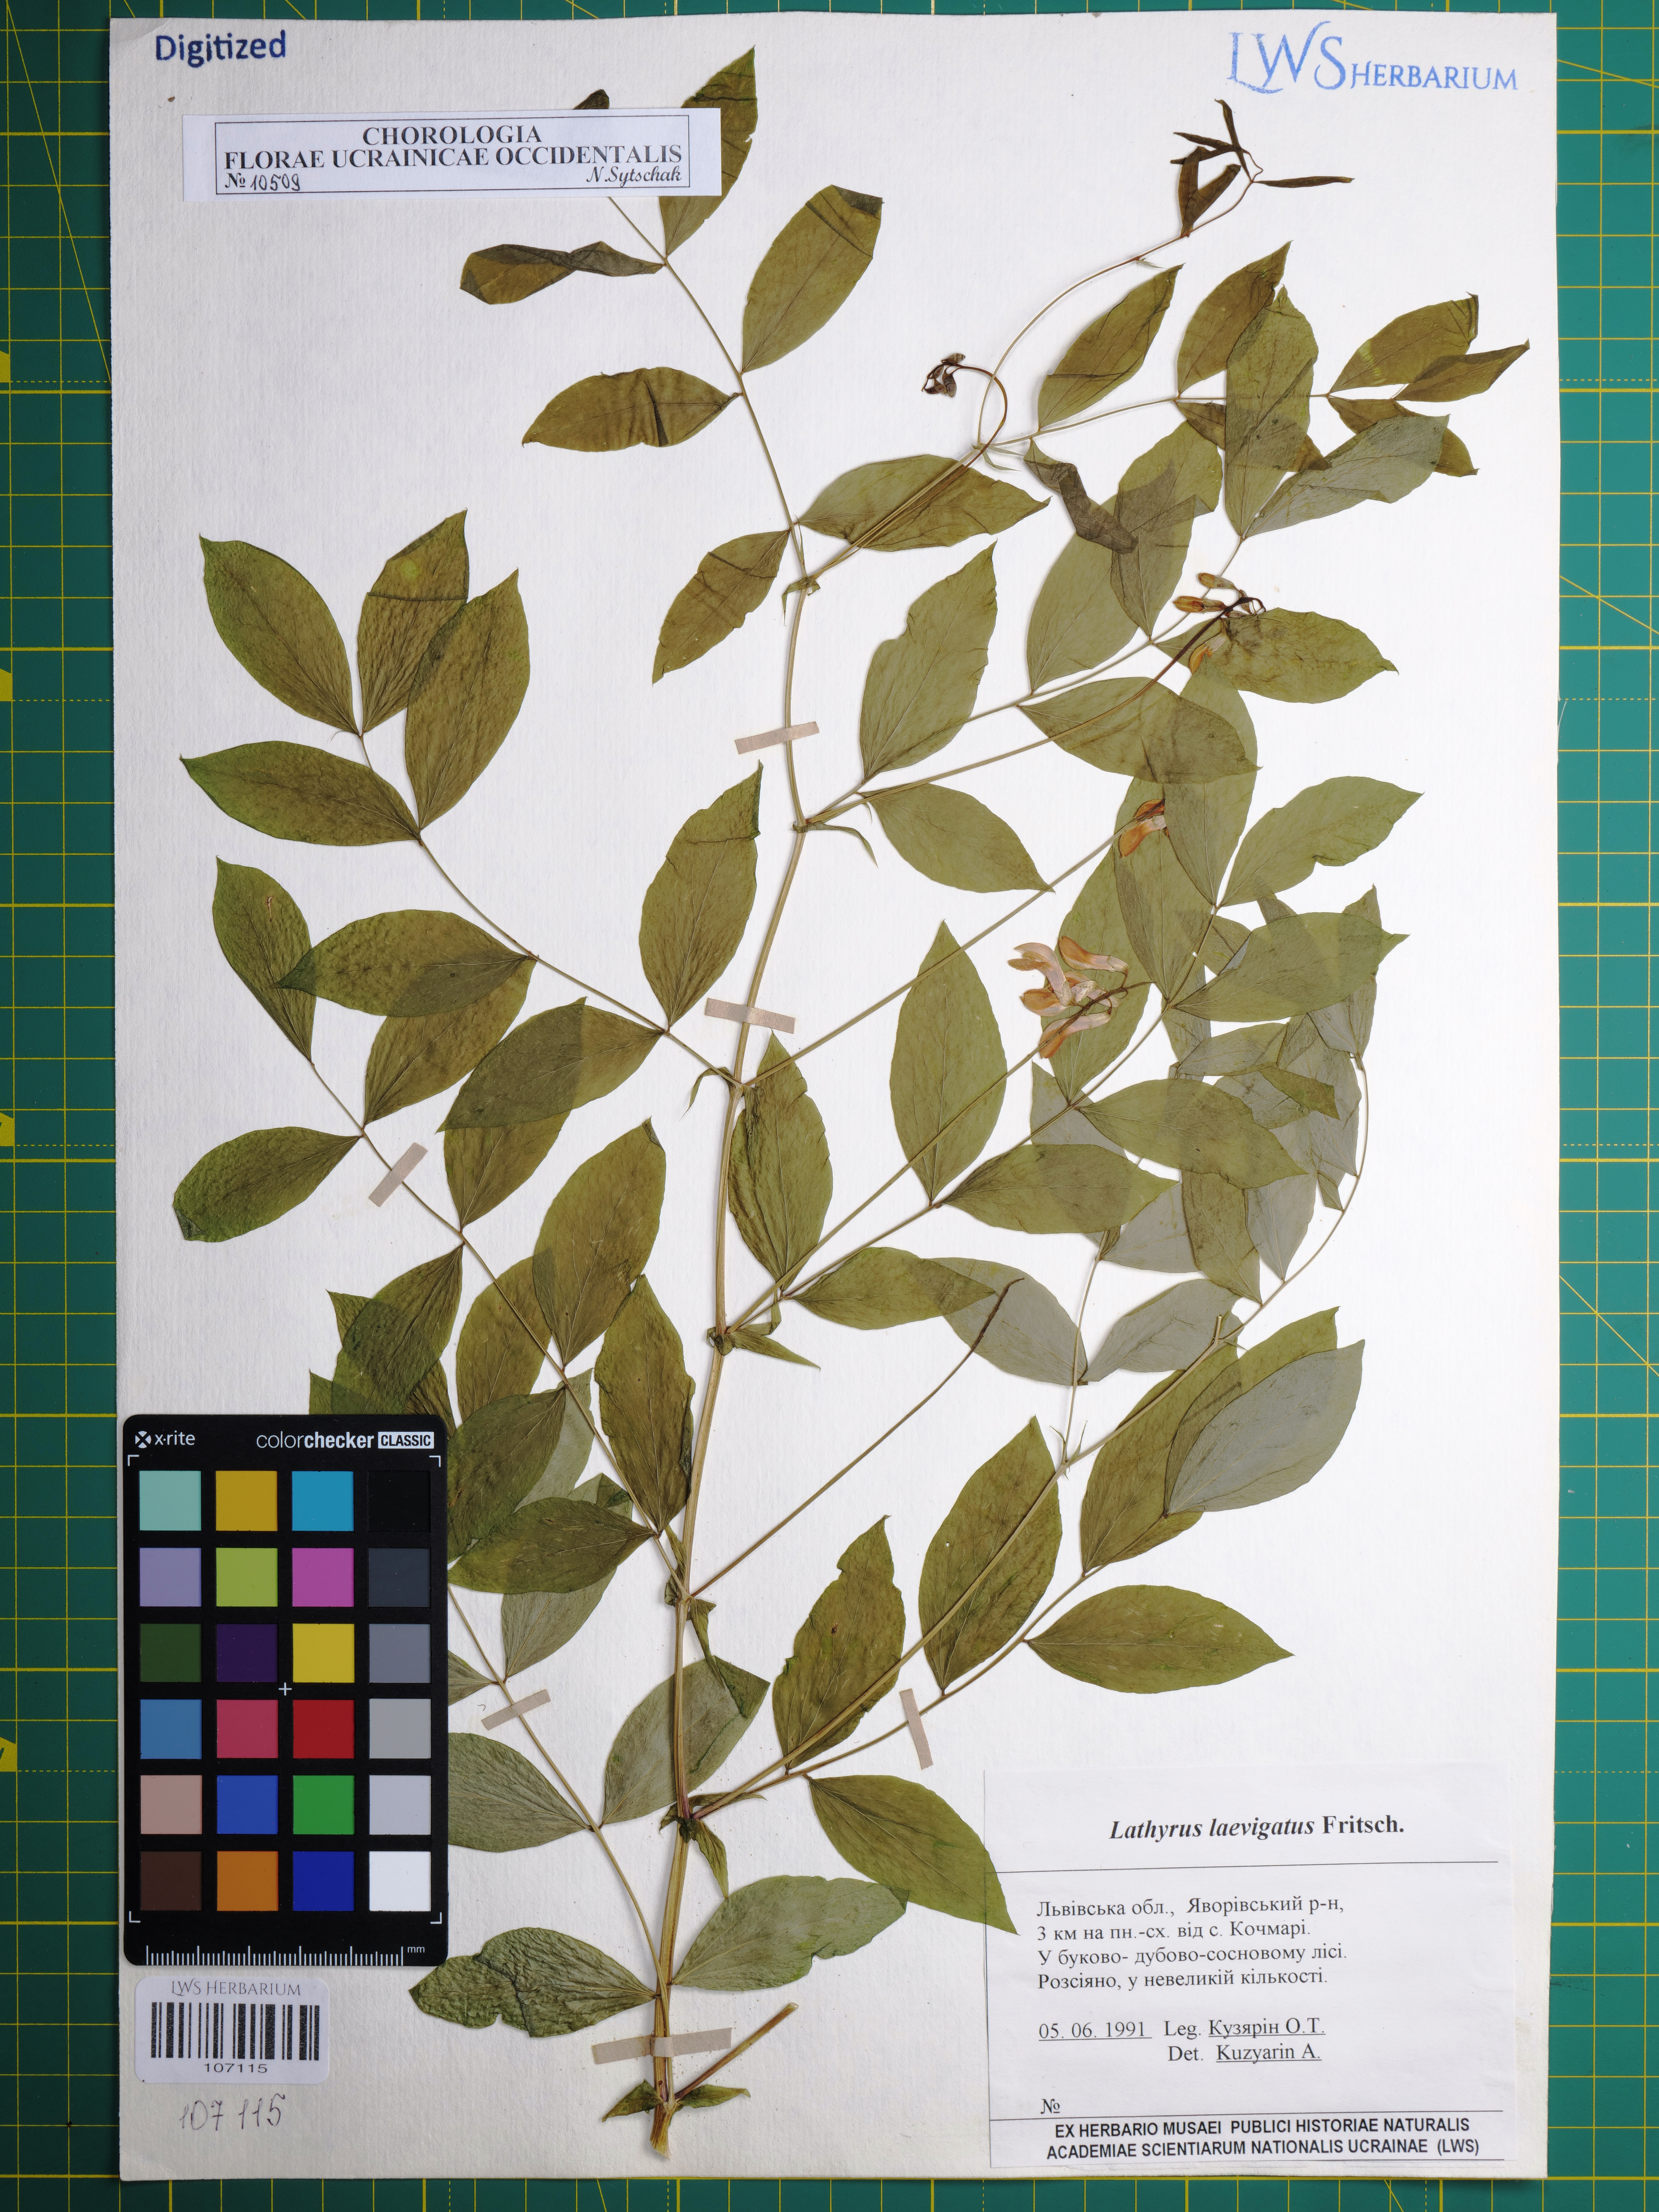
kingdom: Plantae
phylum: Tracheophyta
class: Magnoliopsida
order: Fabales
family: Fabaceae
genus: Lathyrus
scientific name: Lathyrus laevigatus
